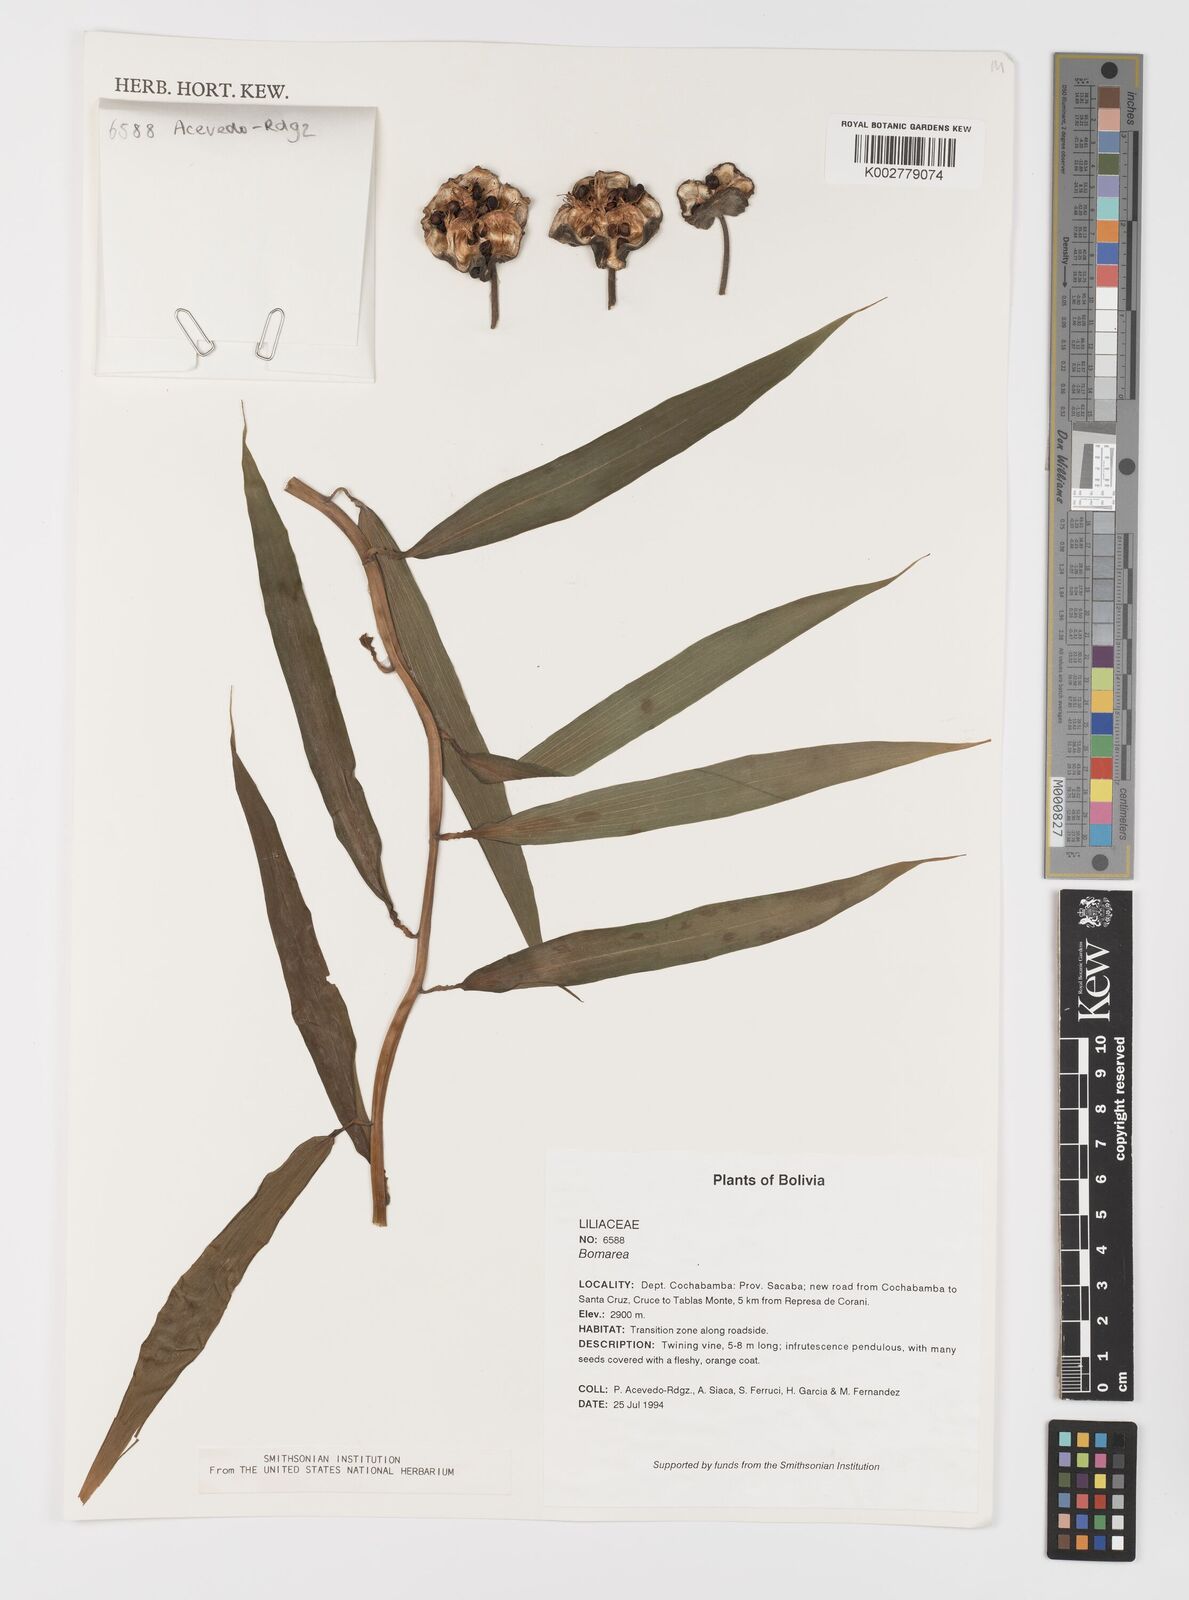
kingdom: Plantae
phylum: Tracheophyta
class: Liliopsida
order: Liliales
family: Alstroemeriaceae
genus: Bomarea
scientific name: Bomarea
